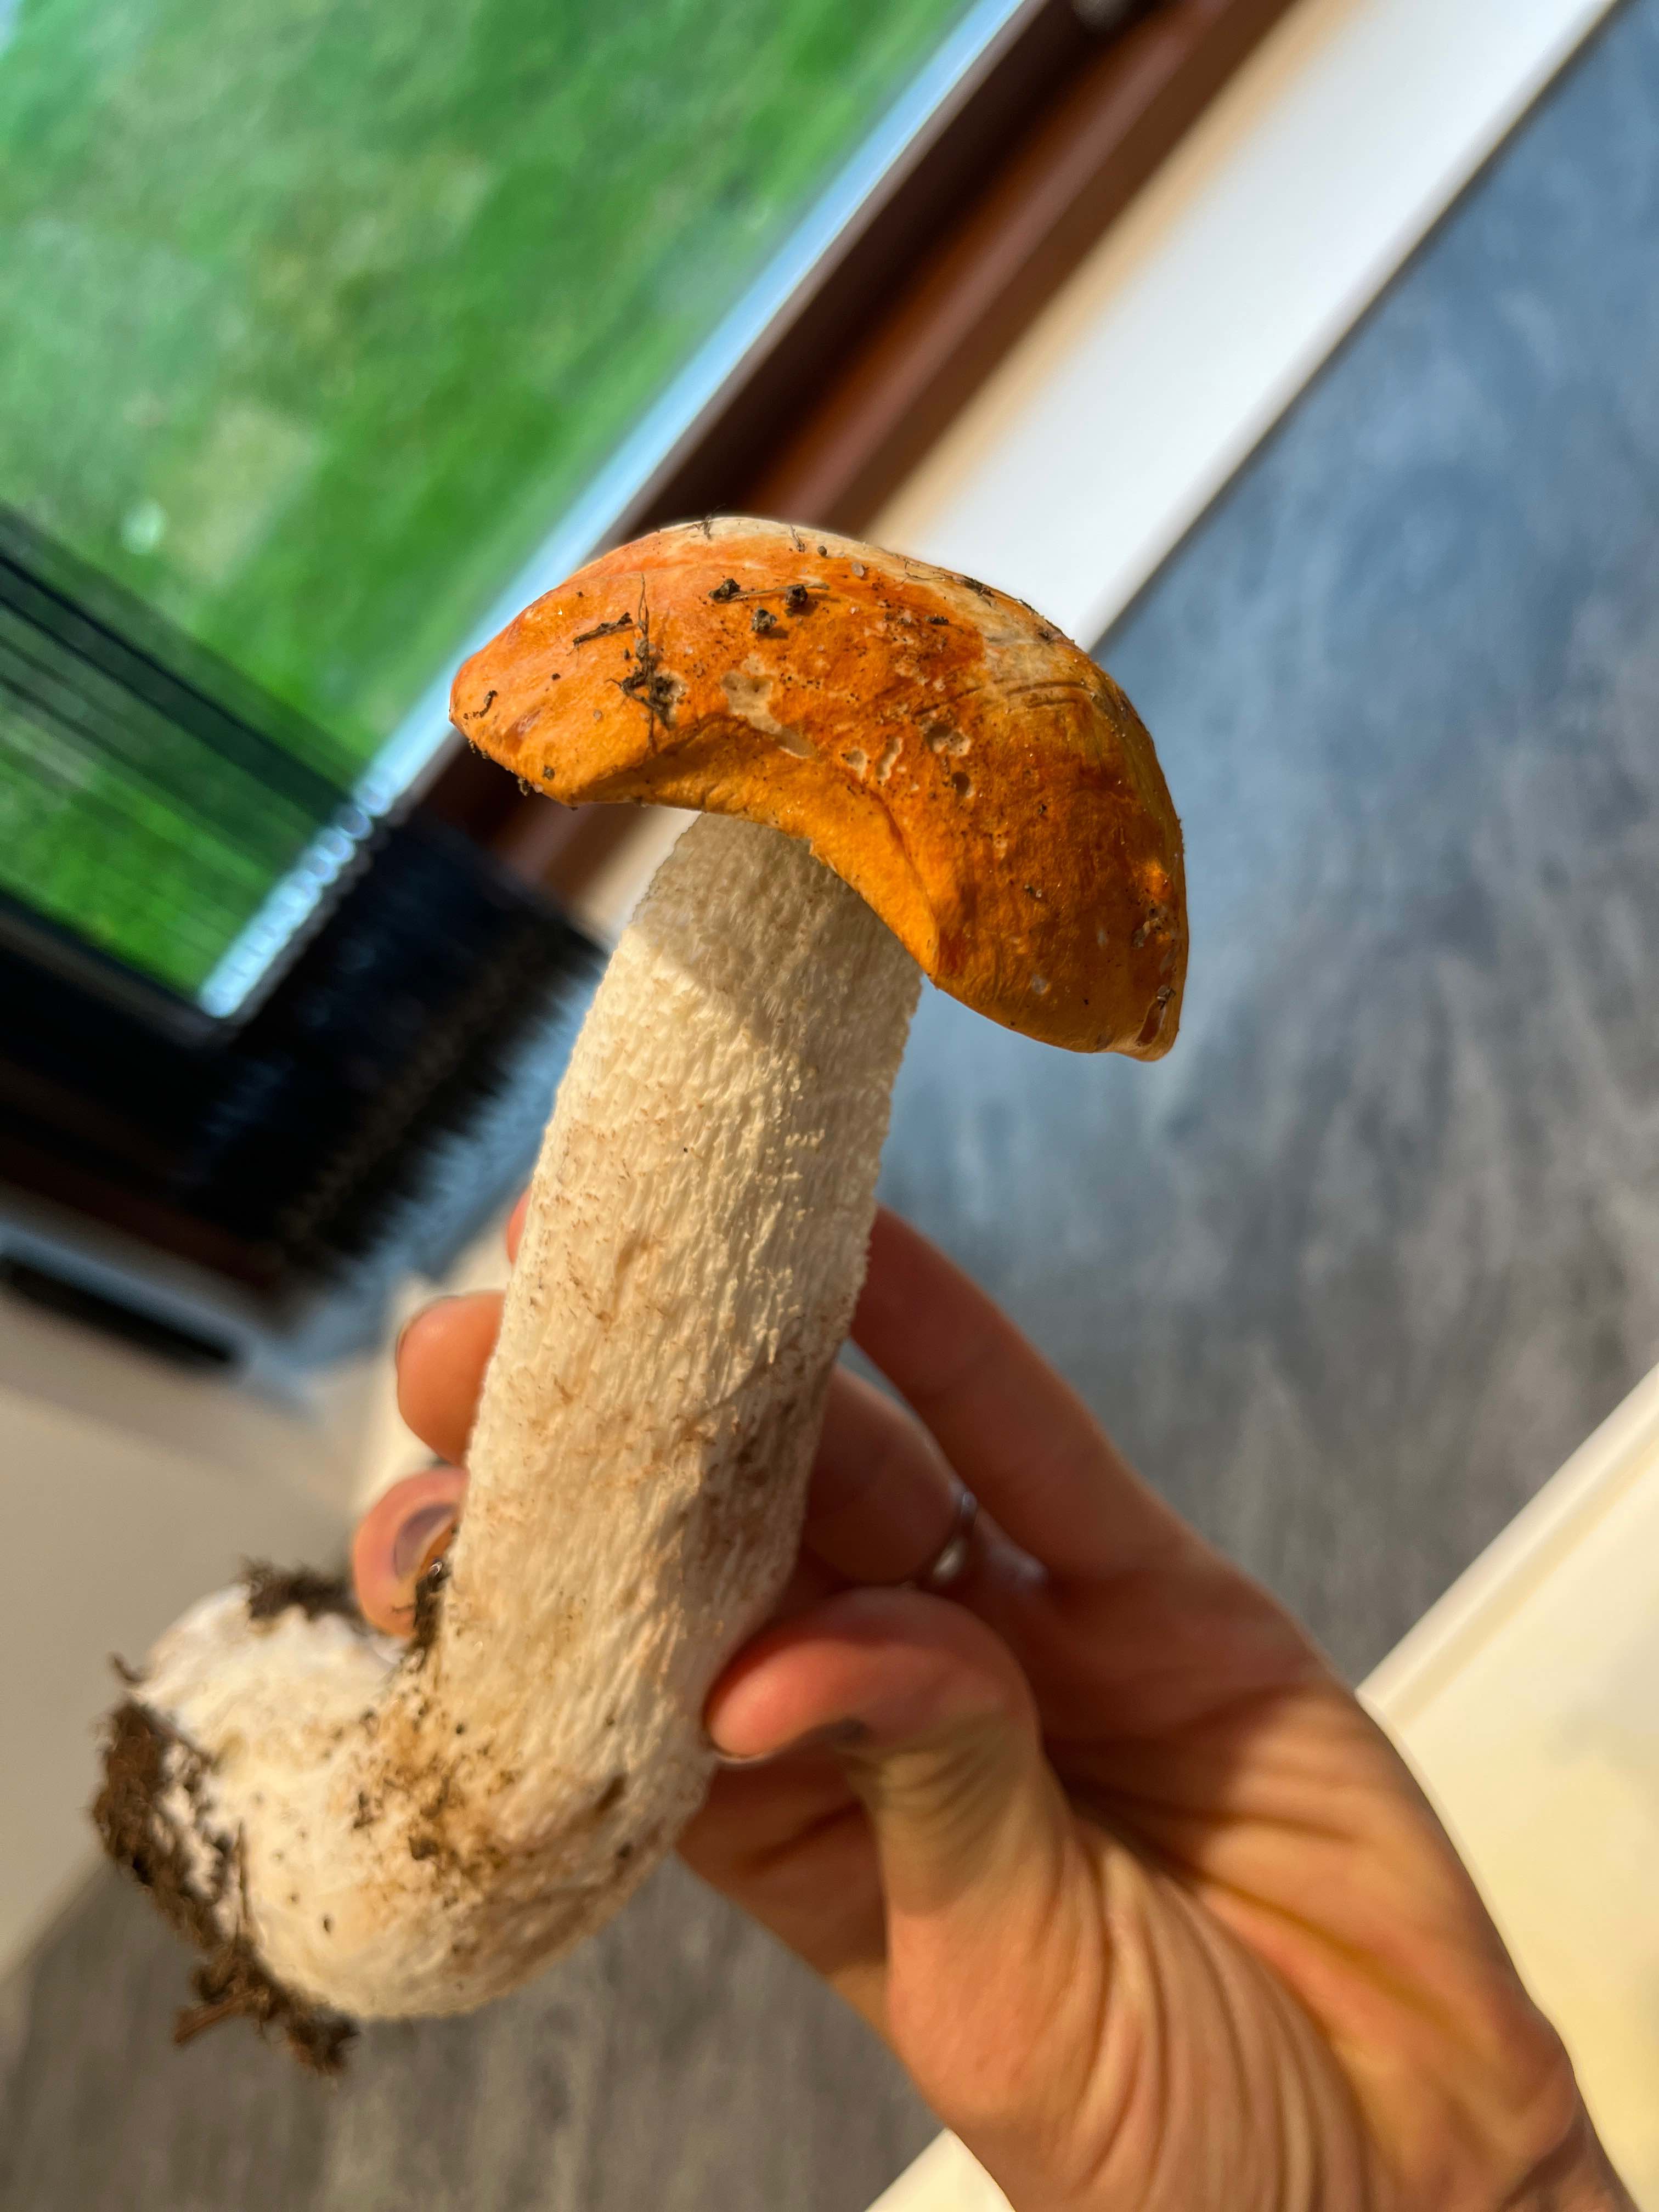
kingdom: Fungi
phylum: Basidiomycota
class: Agaricomycetes
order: Boletales
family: Boletaceae
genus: Leccinum
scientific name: Leccinum
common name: skælrørhat
